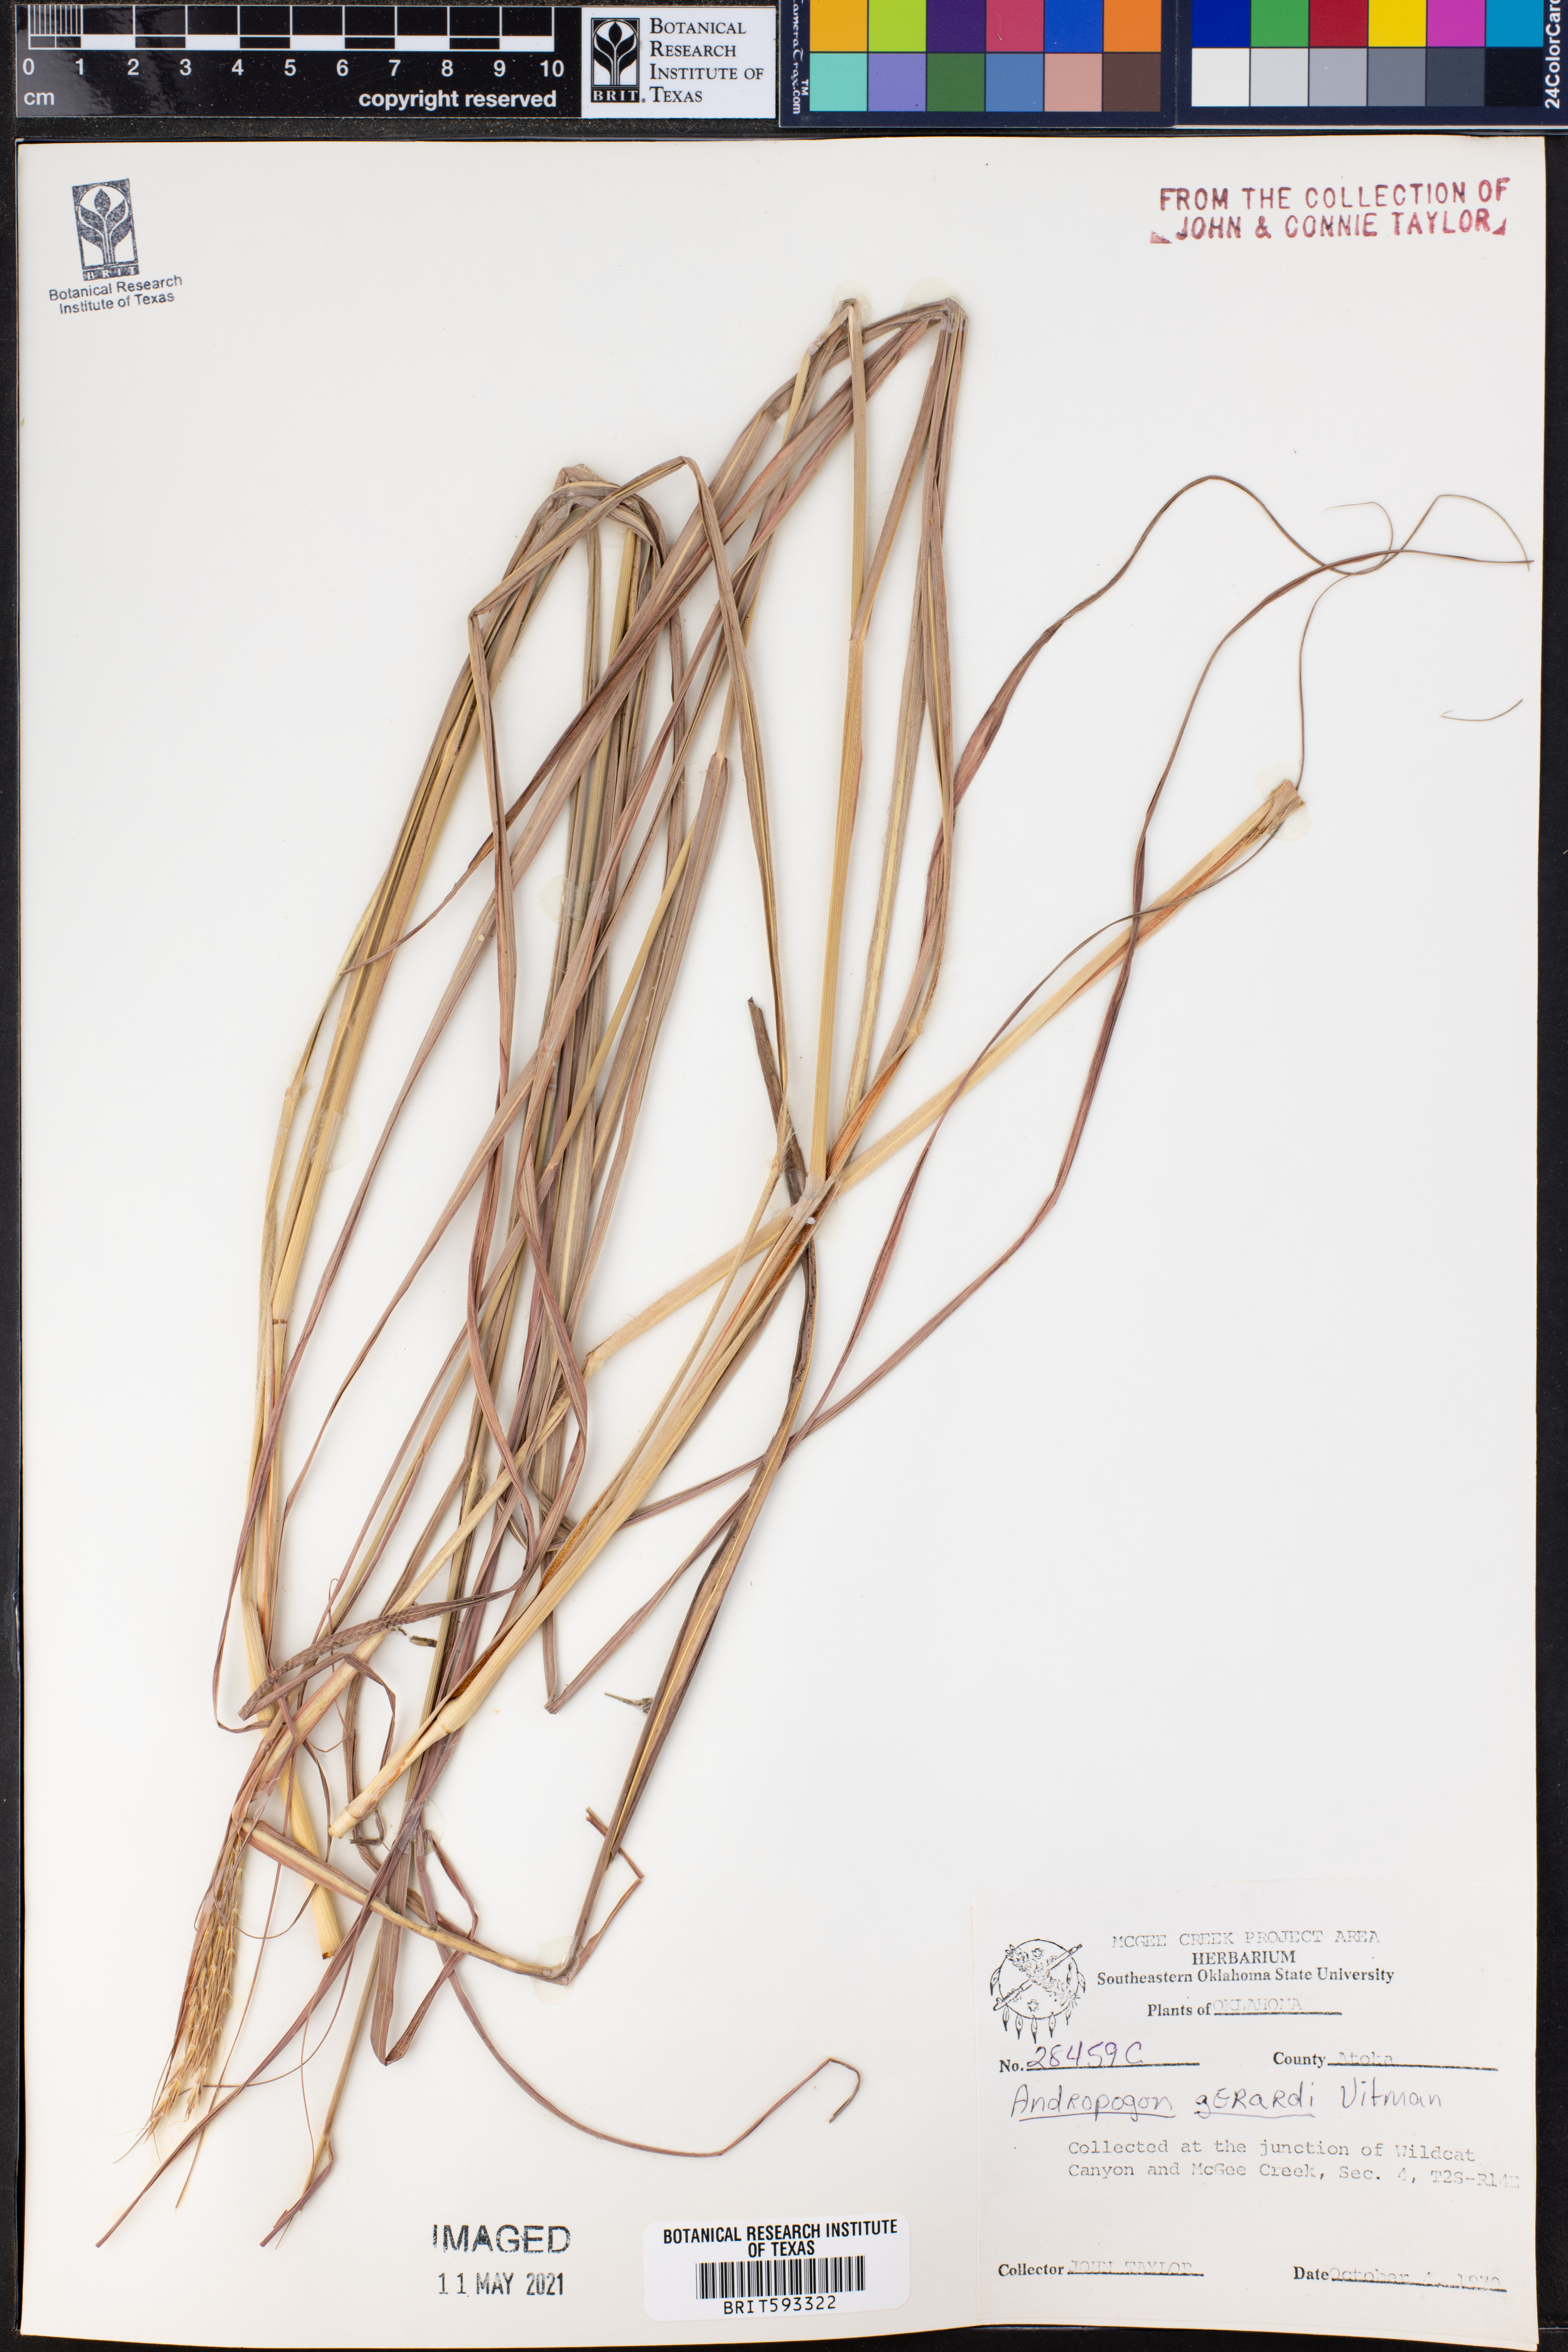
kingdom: Plantae
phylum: Tracheophyta
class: Liliopsida
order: Poales
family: Poaceae
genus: Andropogon
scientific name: Andropogon gerardi
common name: Big bluestem
